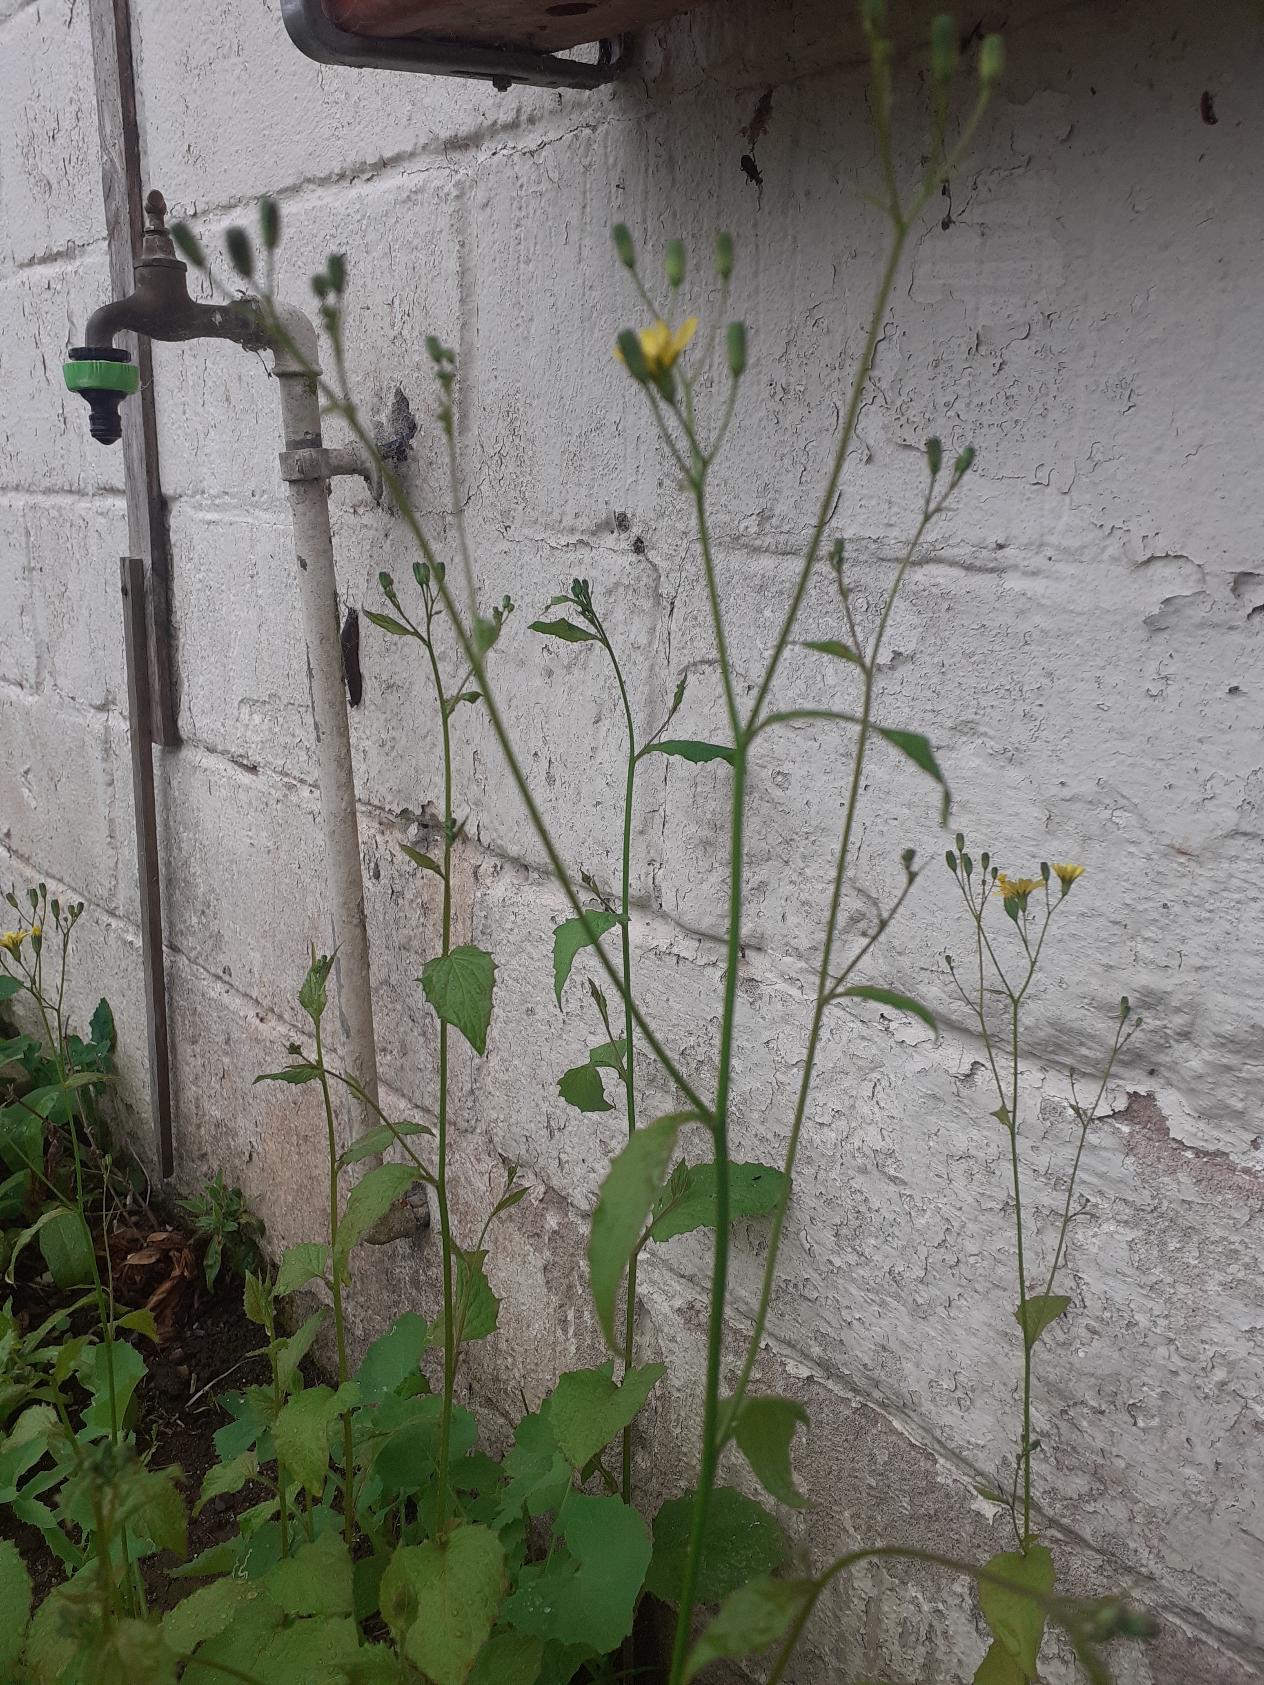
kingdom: Plantae
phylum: Tracheophyta
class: Magnoliopsida
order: Asterales
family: Asteraceae
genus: Lapsana
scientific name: Lapsana communis
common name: Haremad
